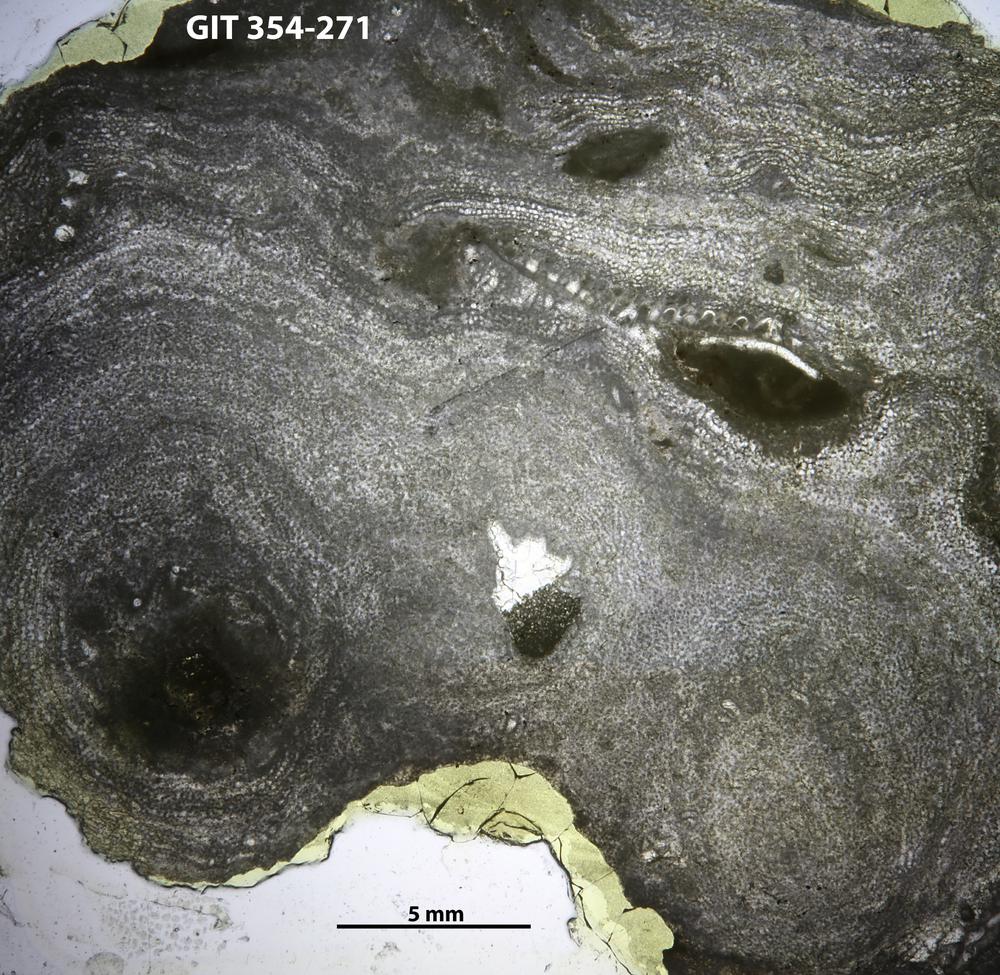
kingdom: Animalia
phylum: Porifera
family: Clathrodictyidae
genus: Clathrodictyon
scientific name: Clathrodictyon lennuki
